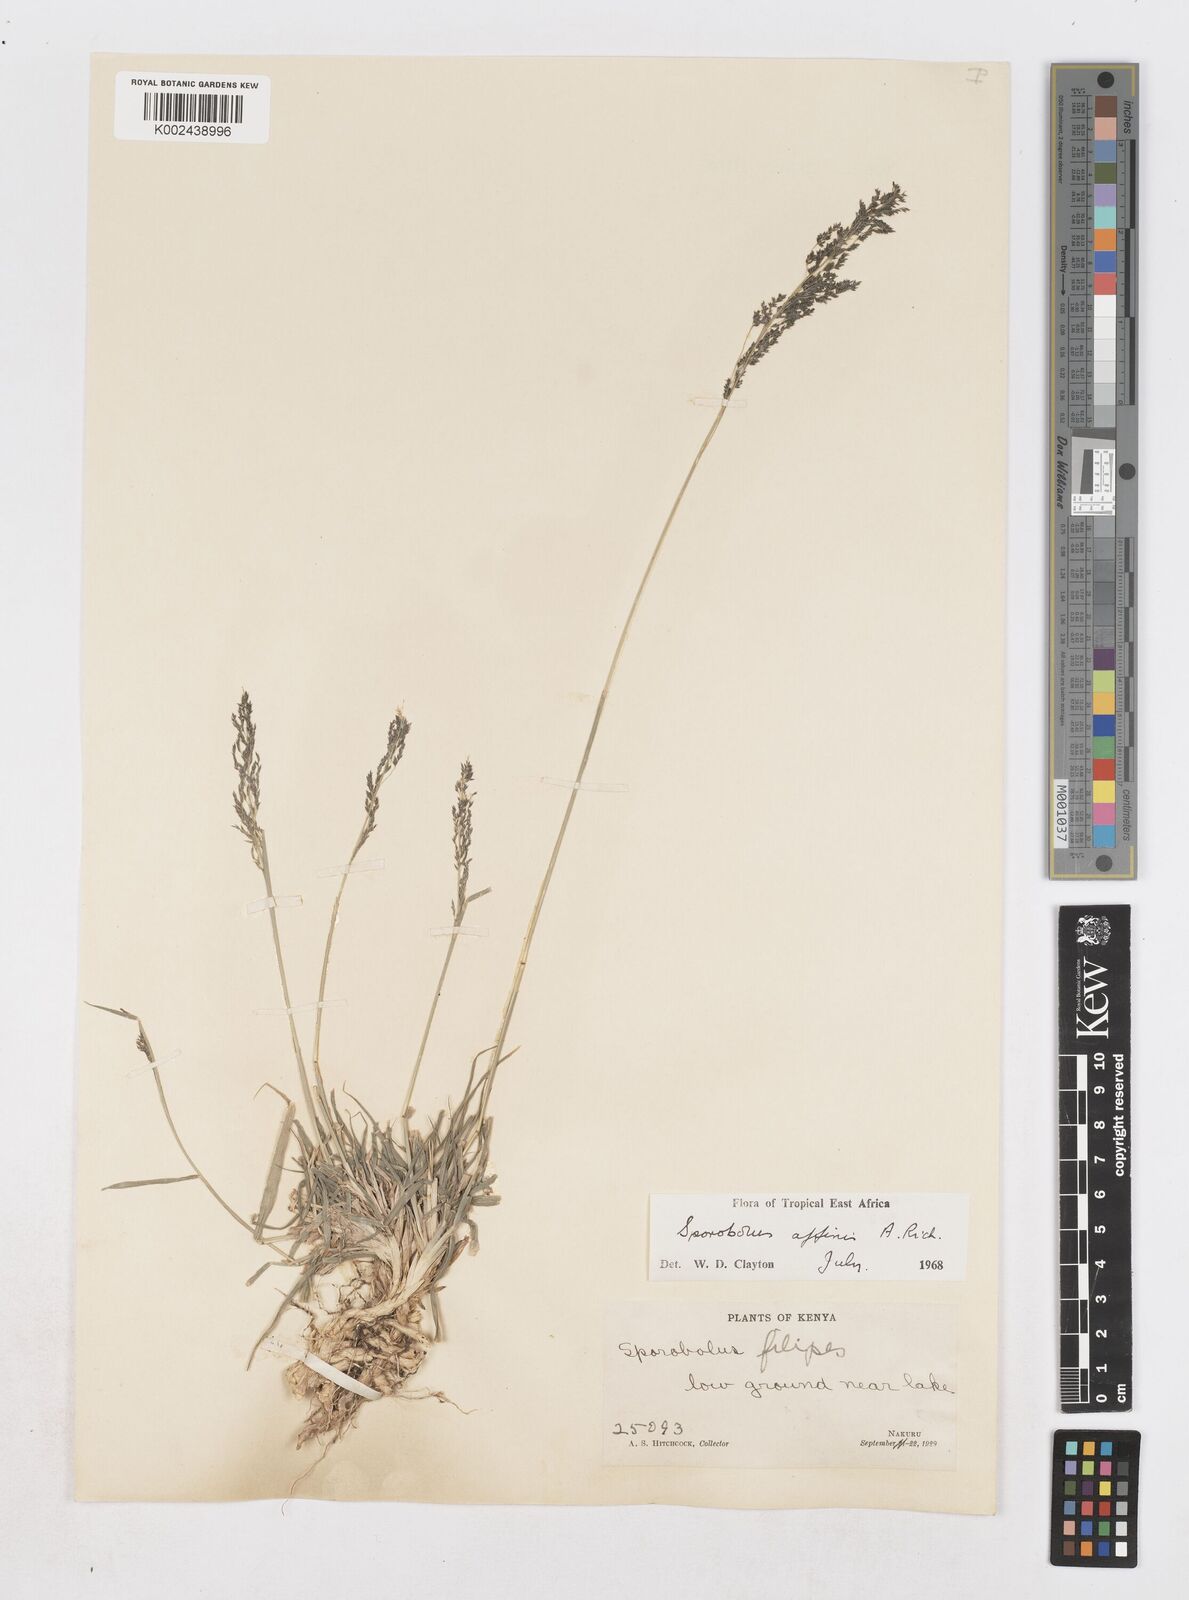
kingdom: Plantae
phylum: Tracheophyta
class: Liliopsida
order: Poales
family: Poaceae
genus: Sporobolus
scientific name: Sporobolus confinis
